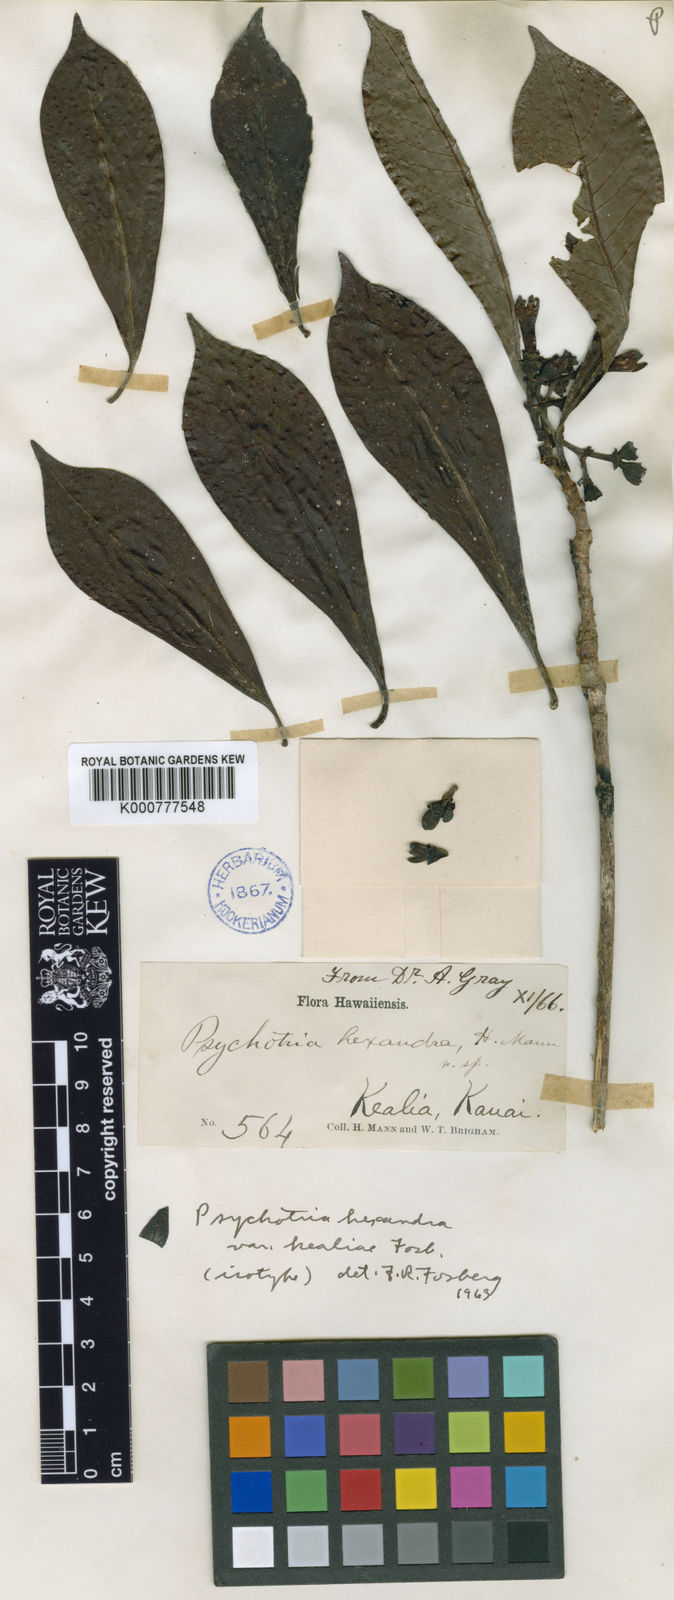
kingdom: Plantae
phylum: Tracheophyta
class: Magnoliopsida
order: Gentianales
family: Rubiaceae
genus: Psychotria
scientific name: Psychotria hexandra
